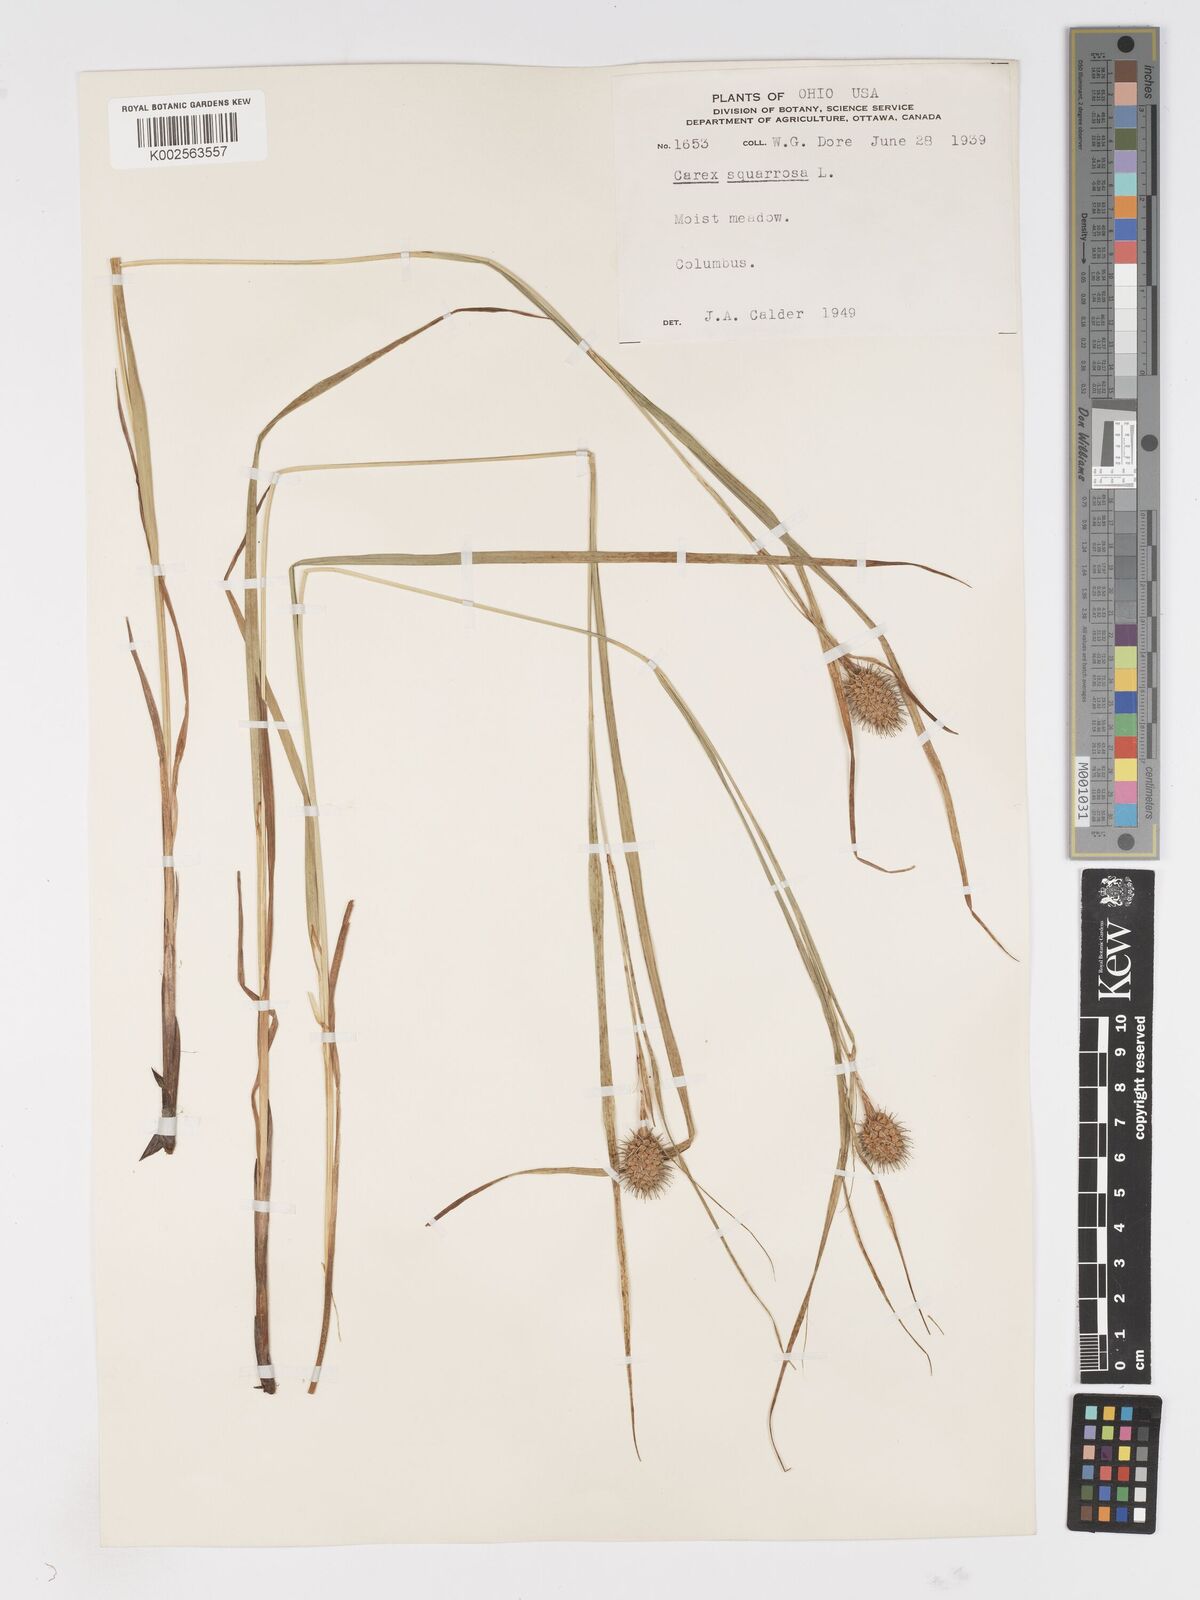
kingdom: Plantae
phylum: Tracheophyta
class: Liliopsida
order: Poales
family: Cyperaceae
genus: Carex
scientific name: Carex squarrosa
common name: Narrow-leaved cattail sedge
